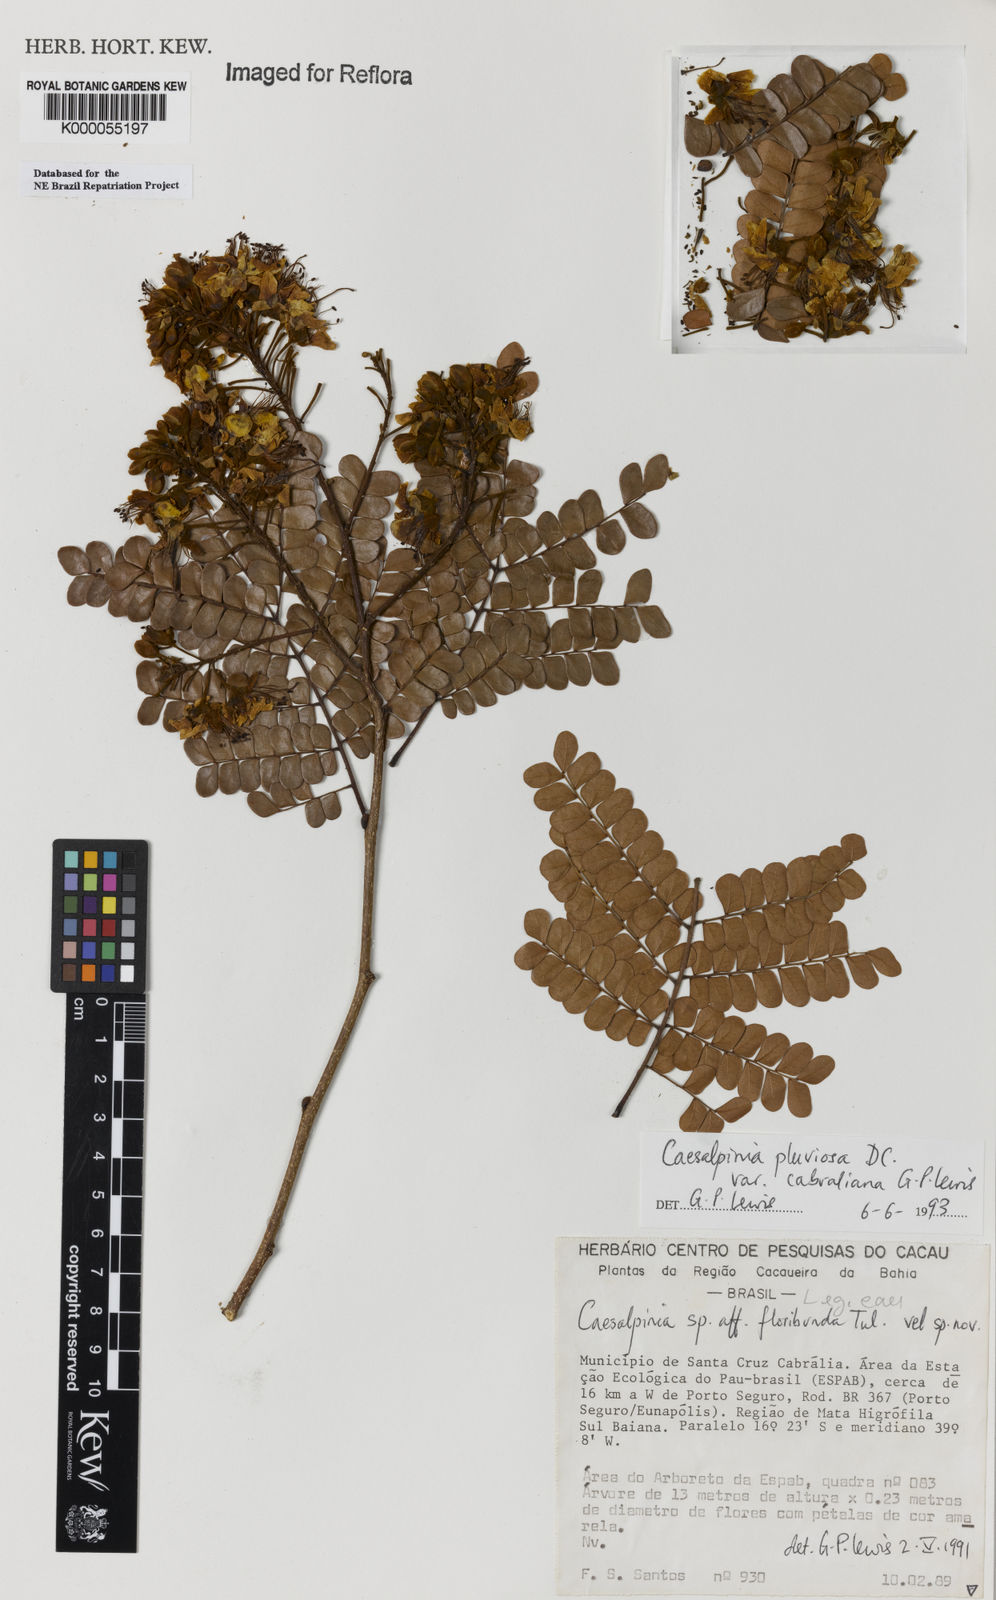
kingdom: Plantae
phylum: Tracheophyta
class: Magnoliopsida
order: Fabales
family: Fabaceae
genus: Cenostigma
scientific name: Cenostigma pluviosum
